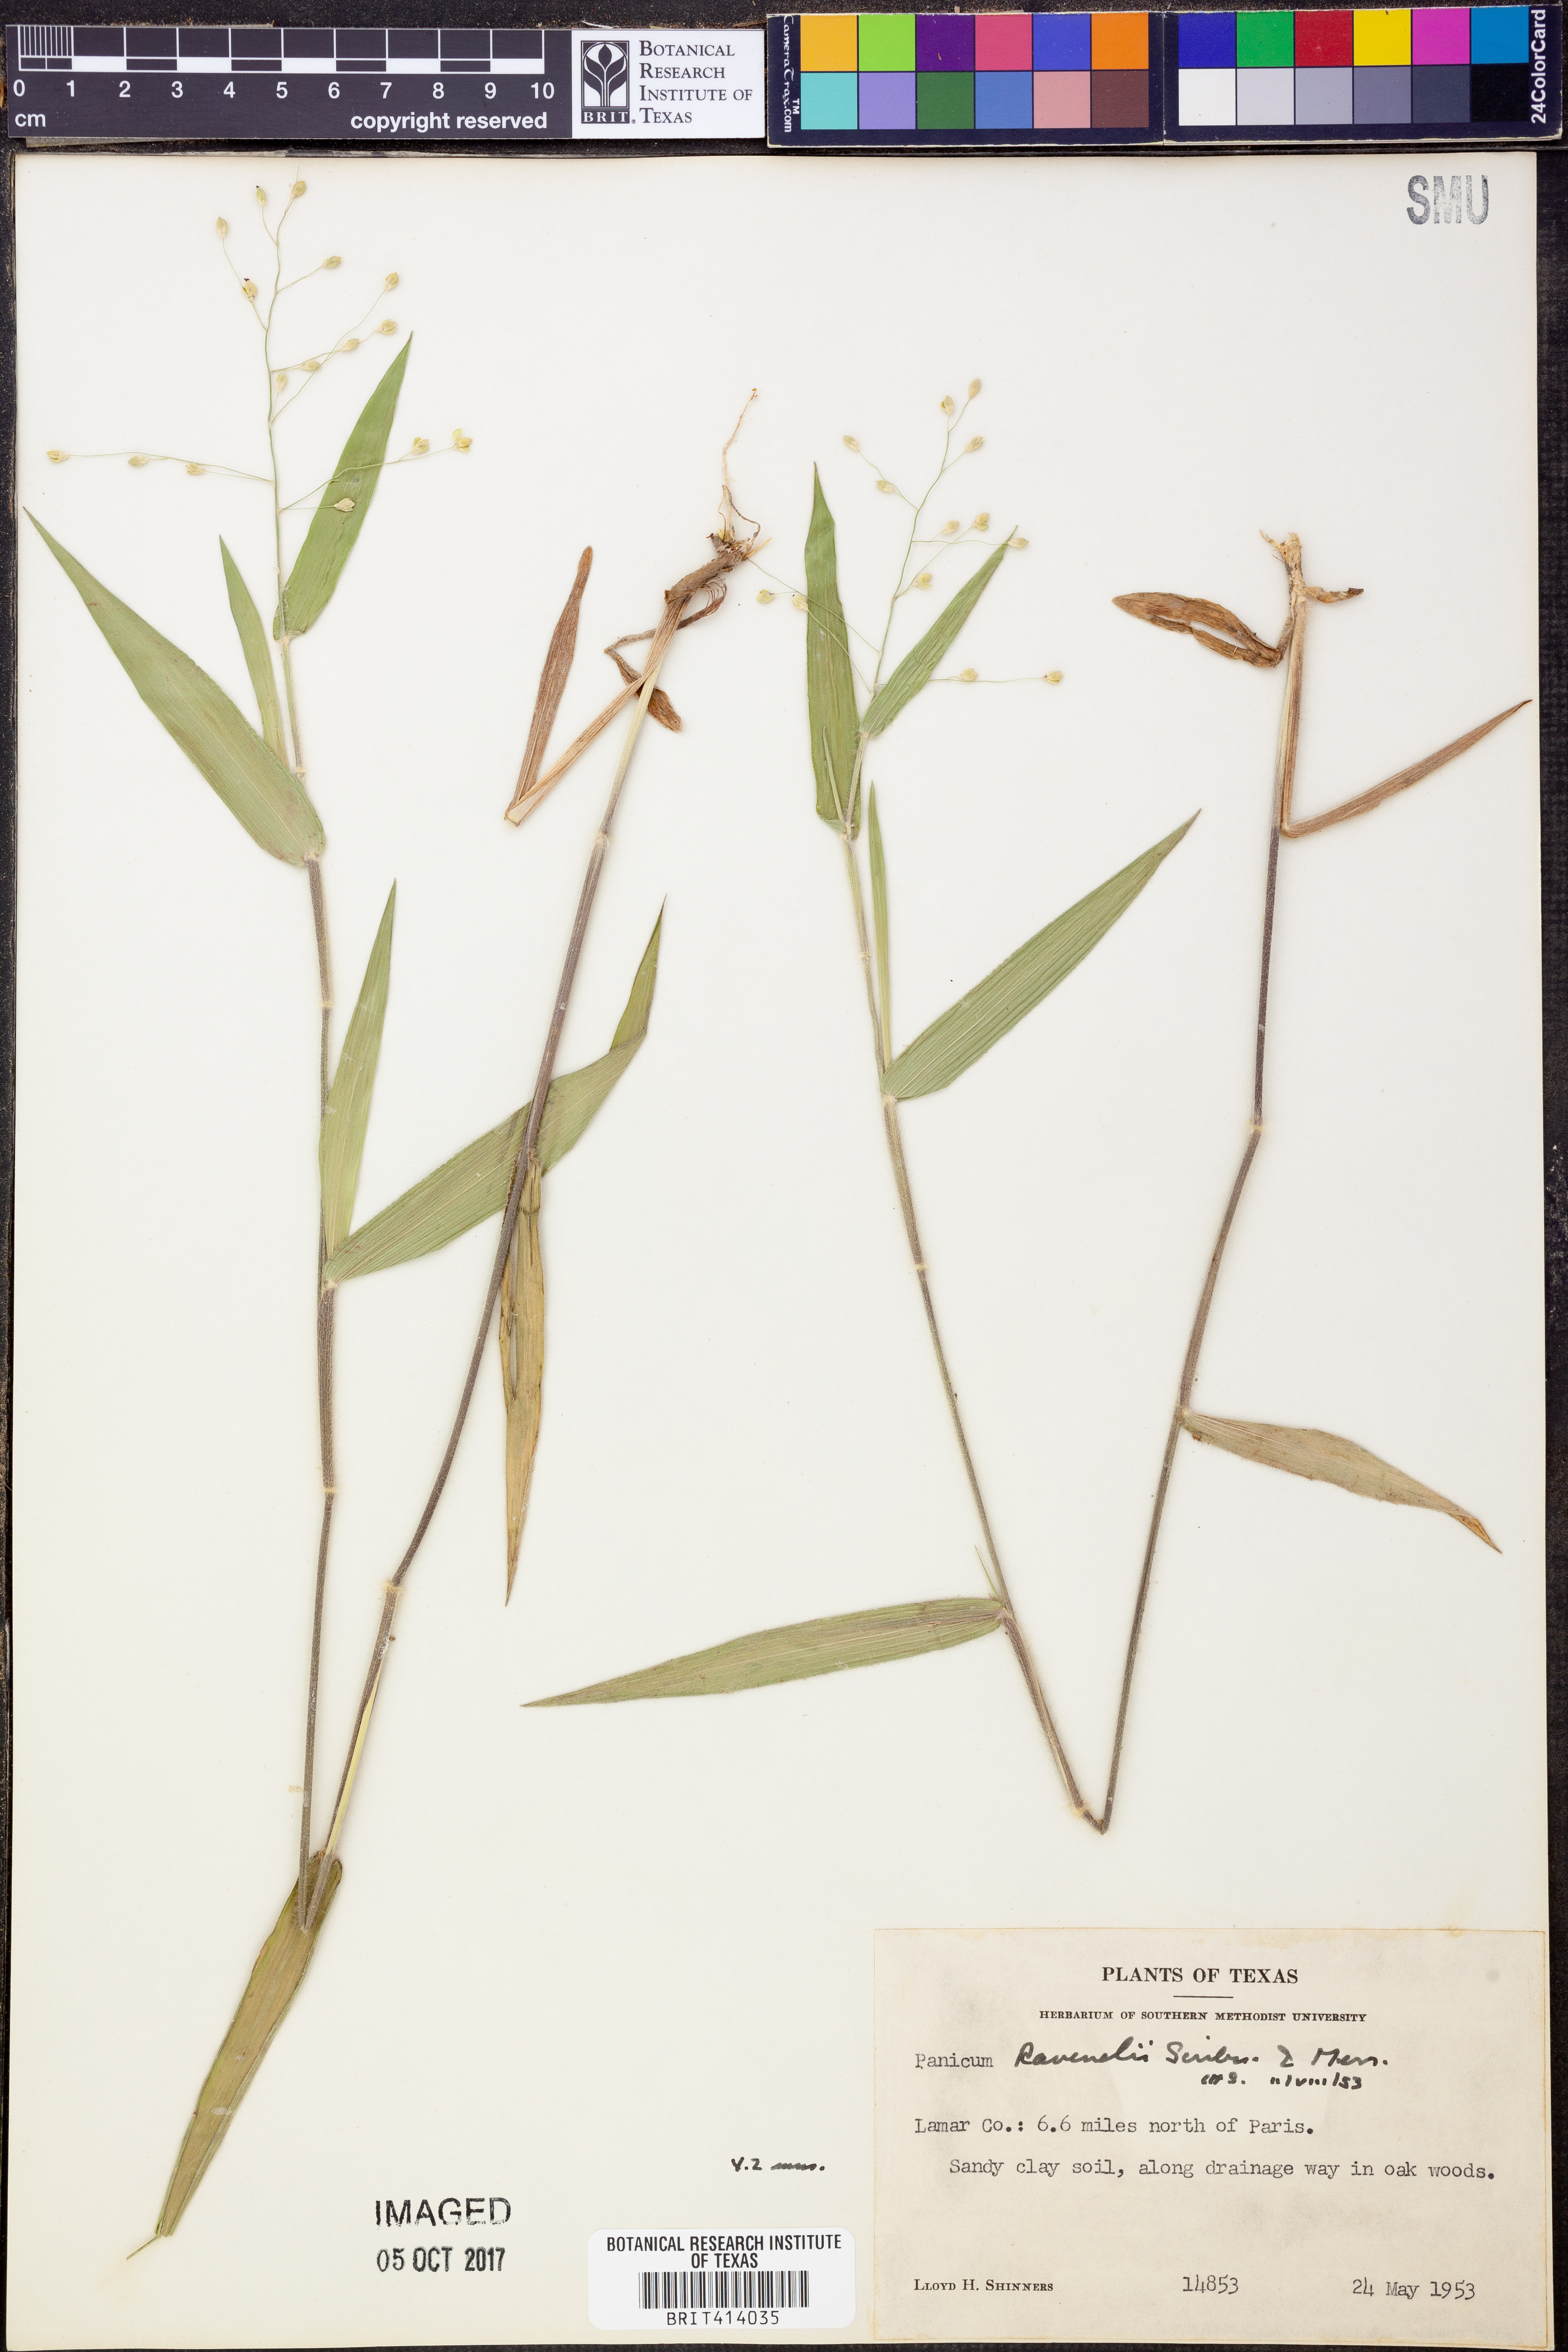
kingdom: Plantae
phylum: Tracheophyta
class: Liliopsida
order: Poales
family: Poaceae
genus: Dichanthelium
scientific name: Dichanthelium ravenelii
